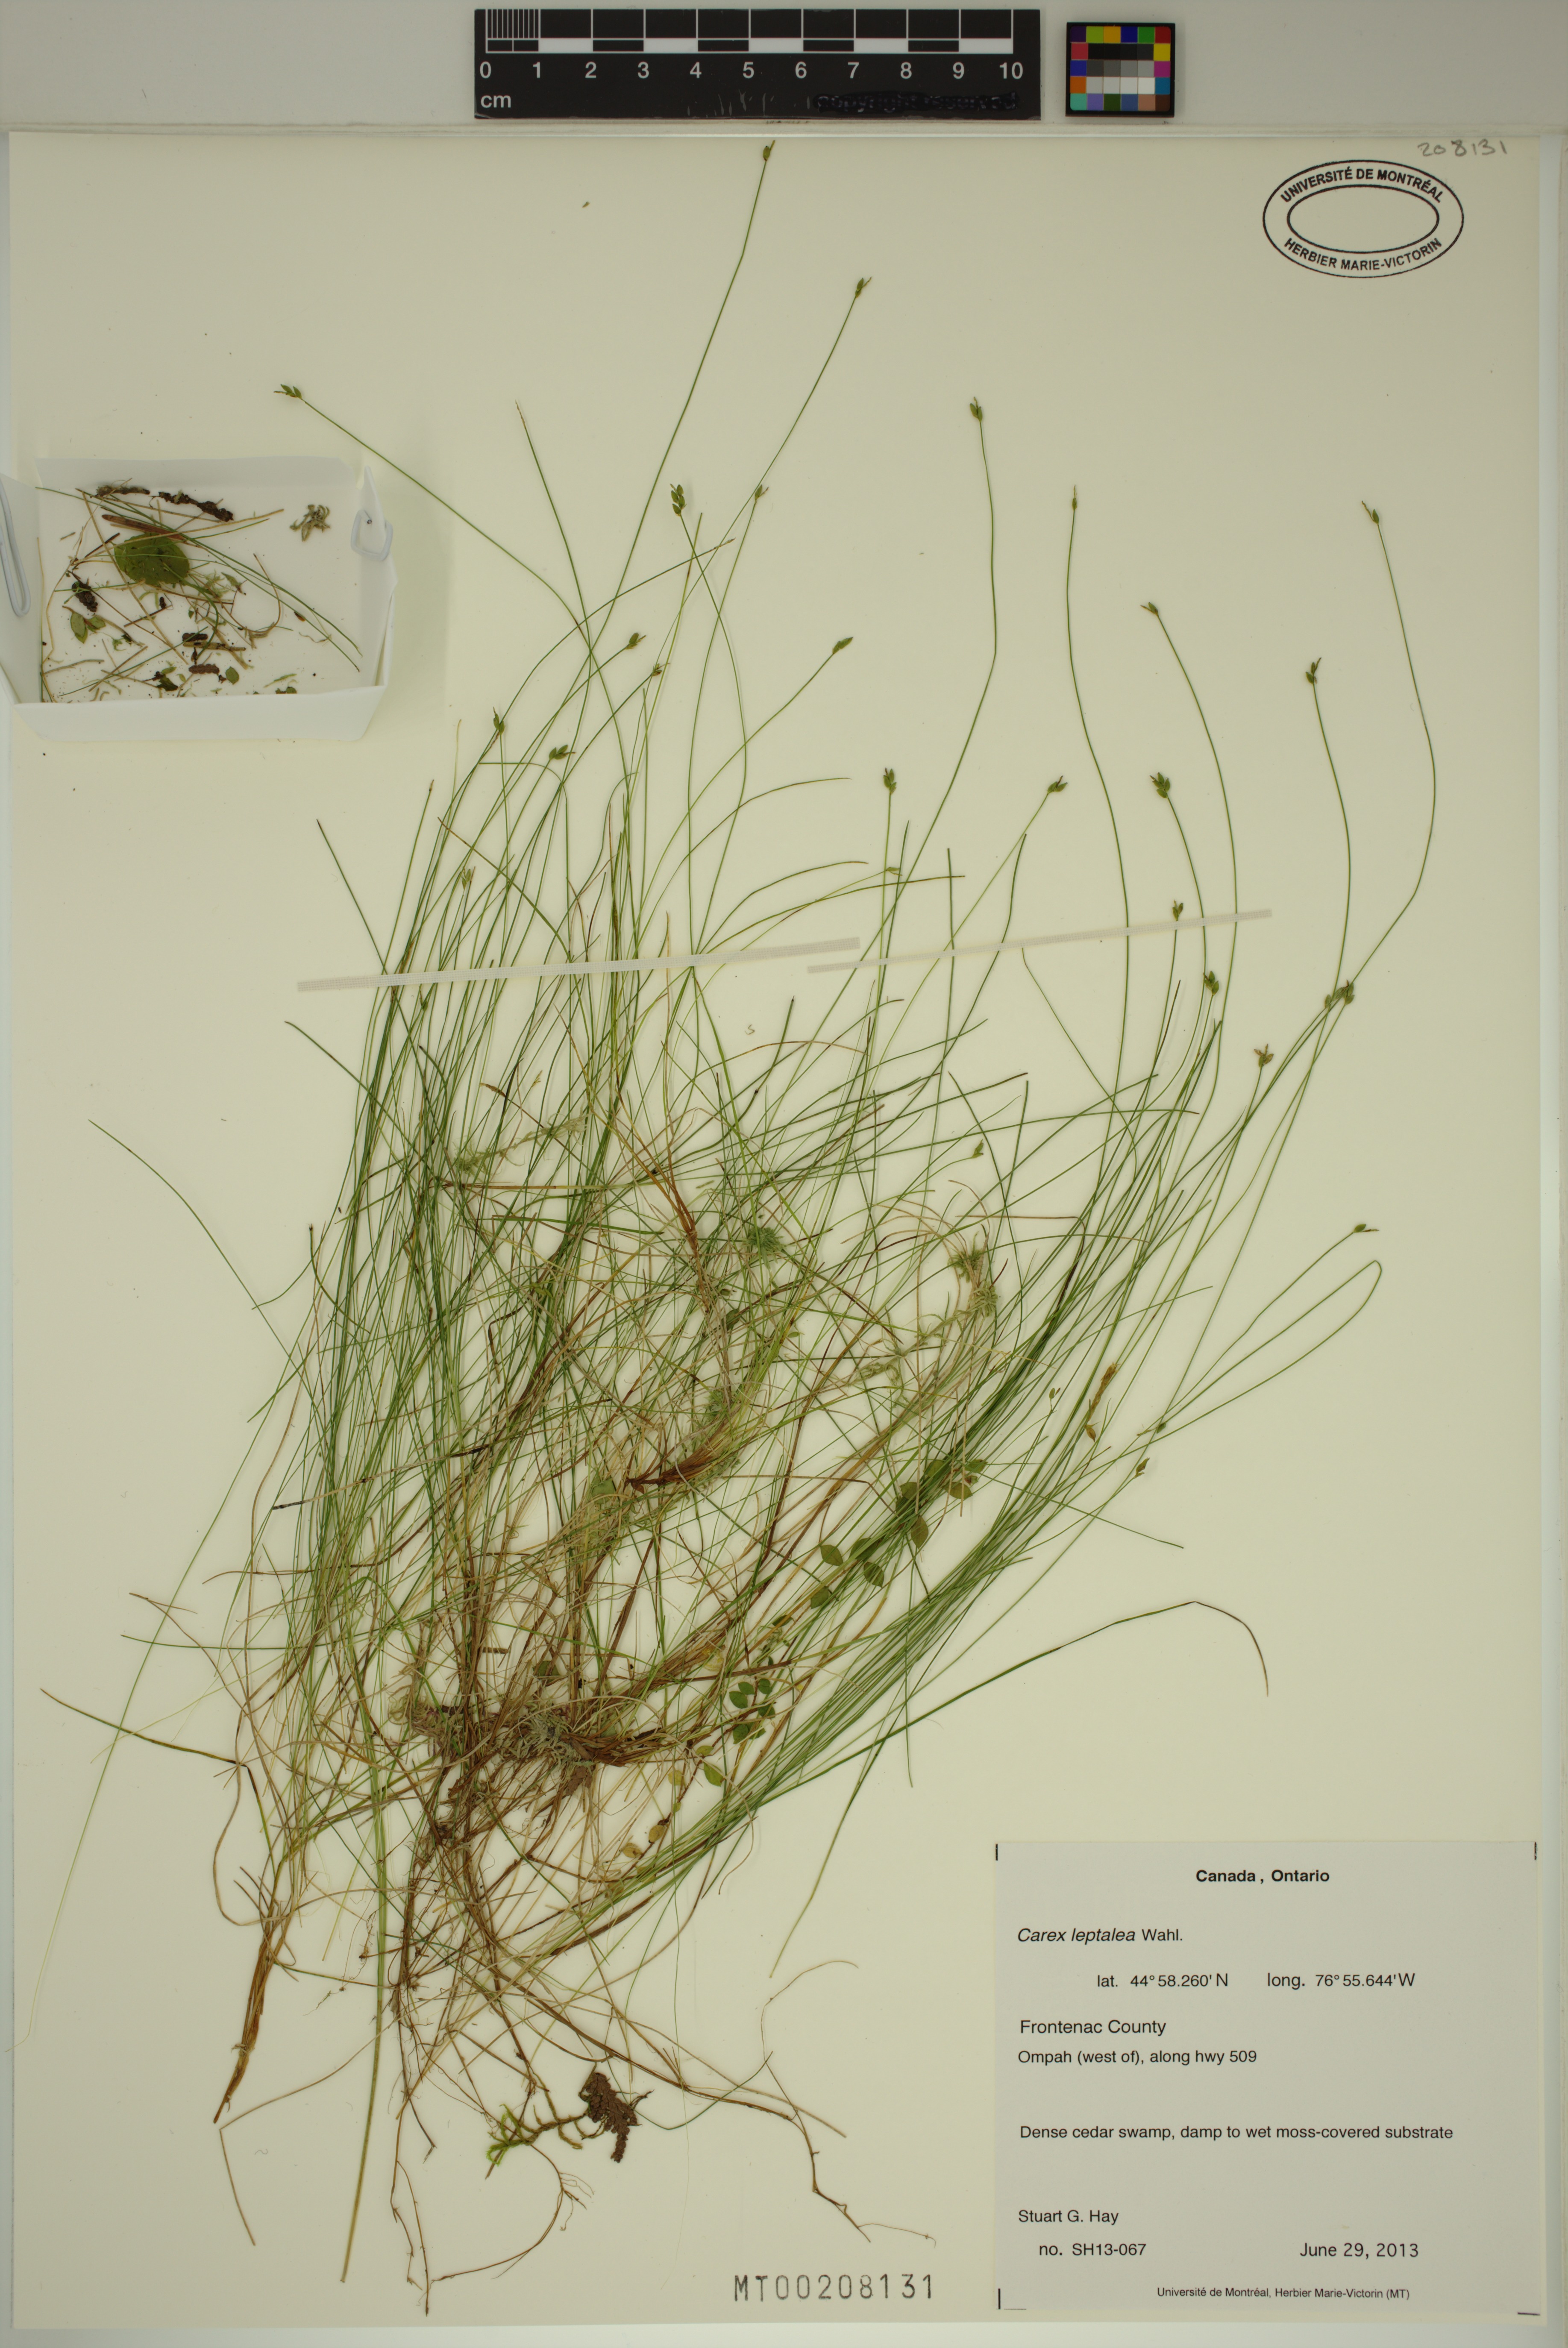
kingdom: Plantae
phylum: Tracheophyta
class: Liliopsida
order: Poales
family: Cyperaceae
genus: Carex
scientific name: Carex leptalea
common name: Bristly-stalked sedge
